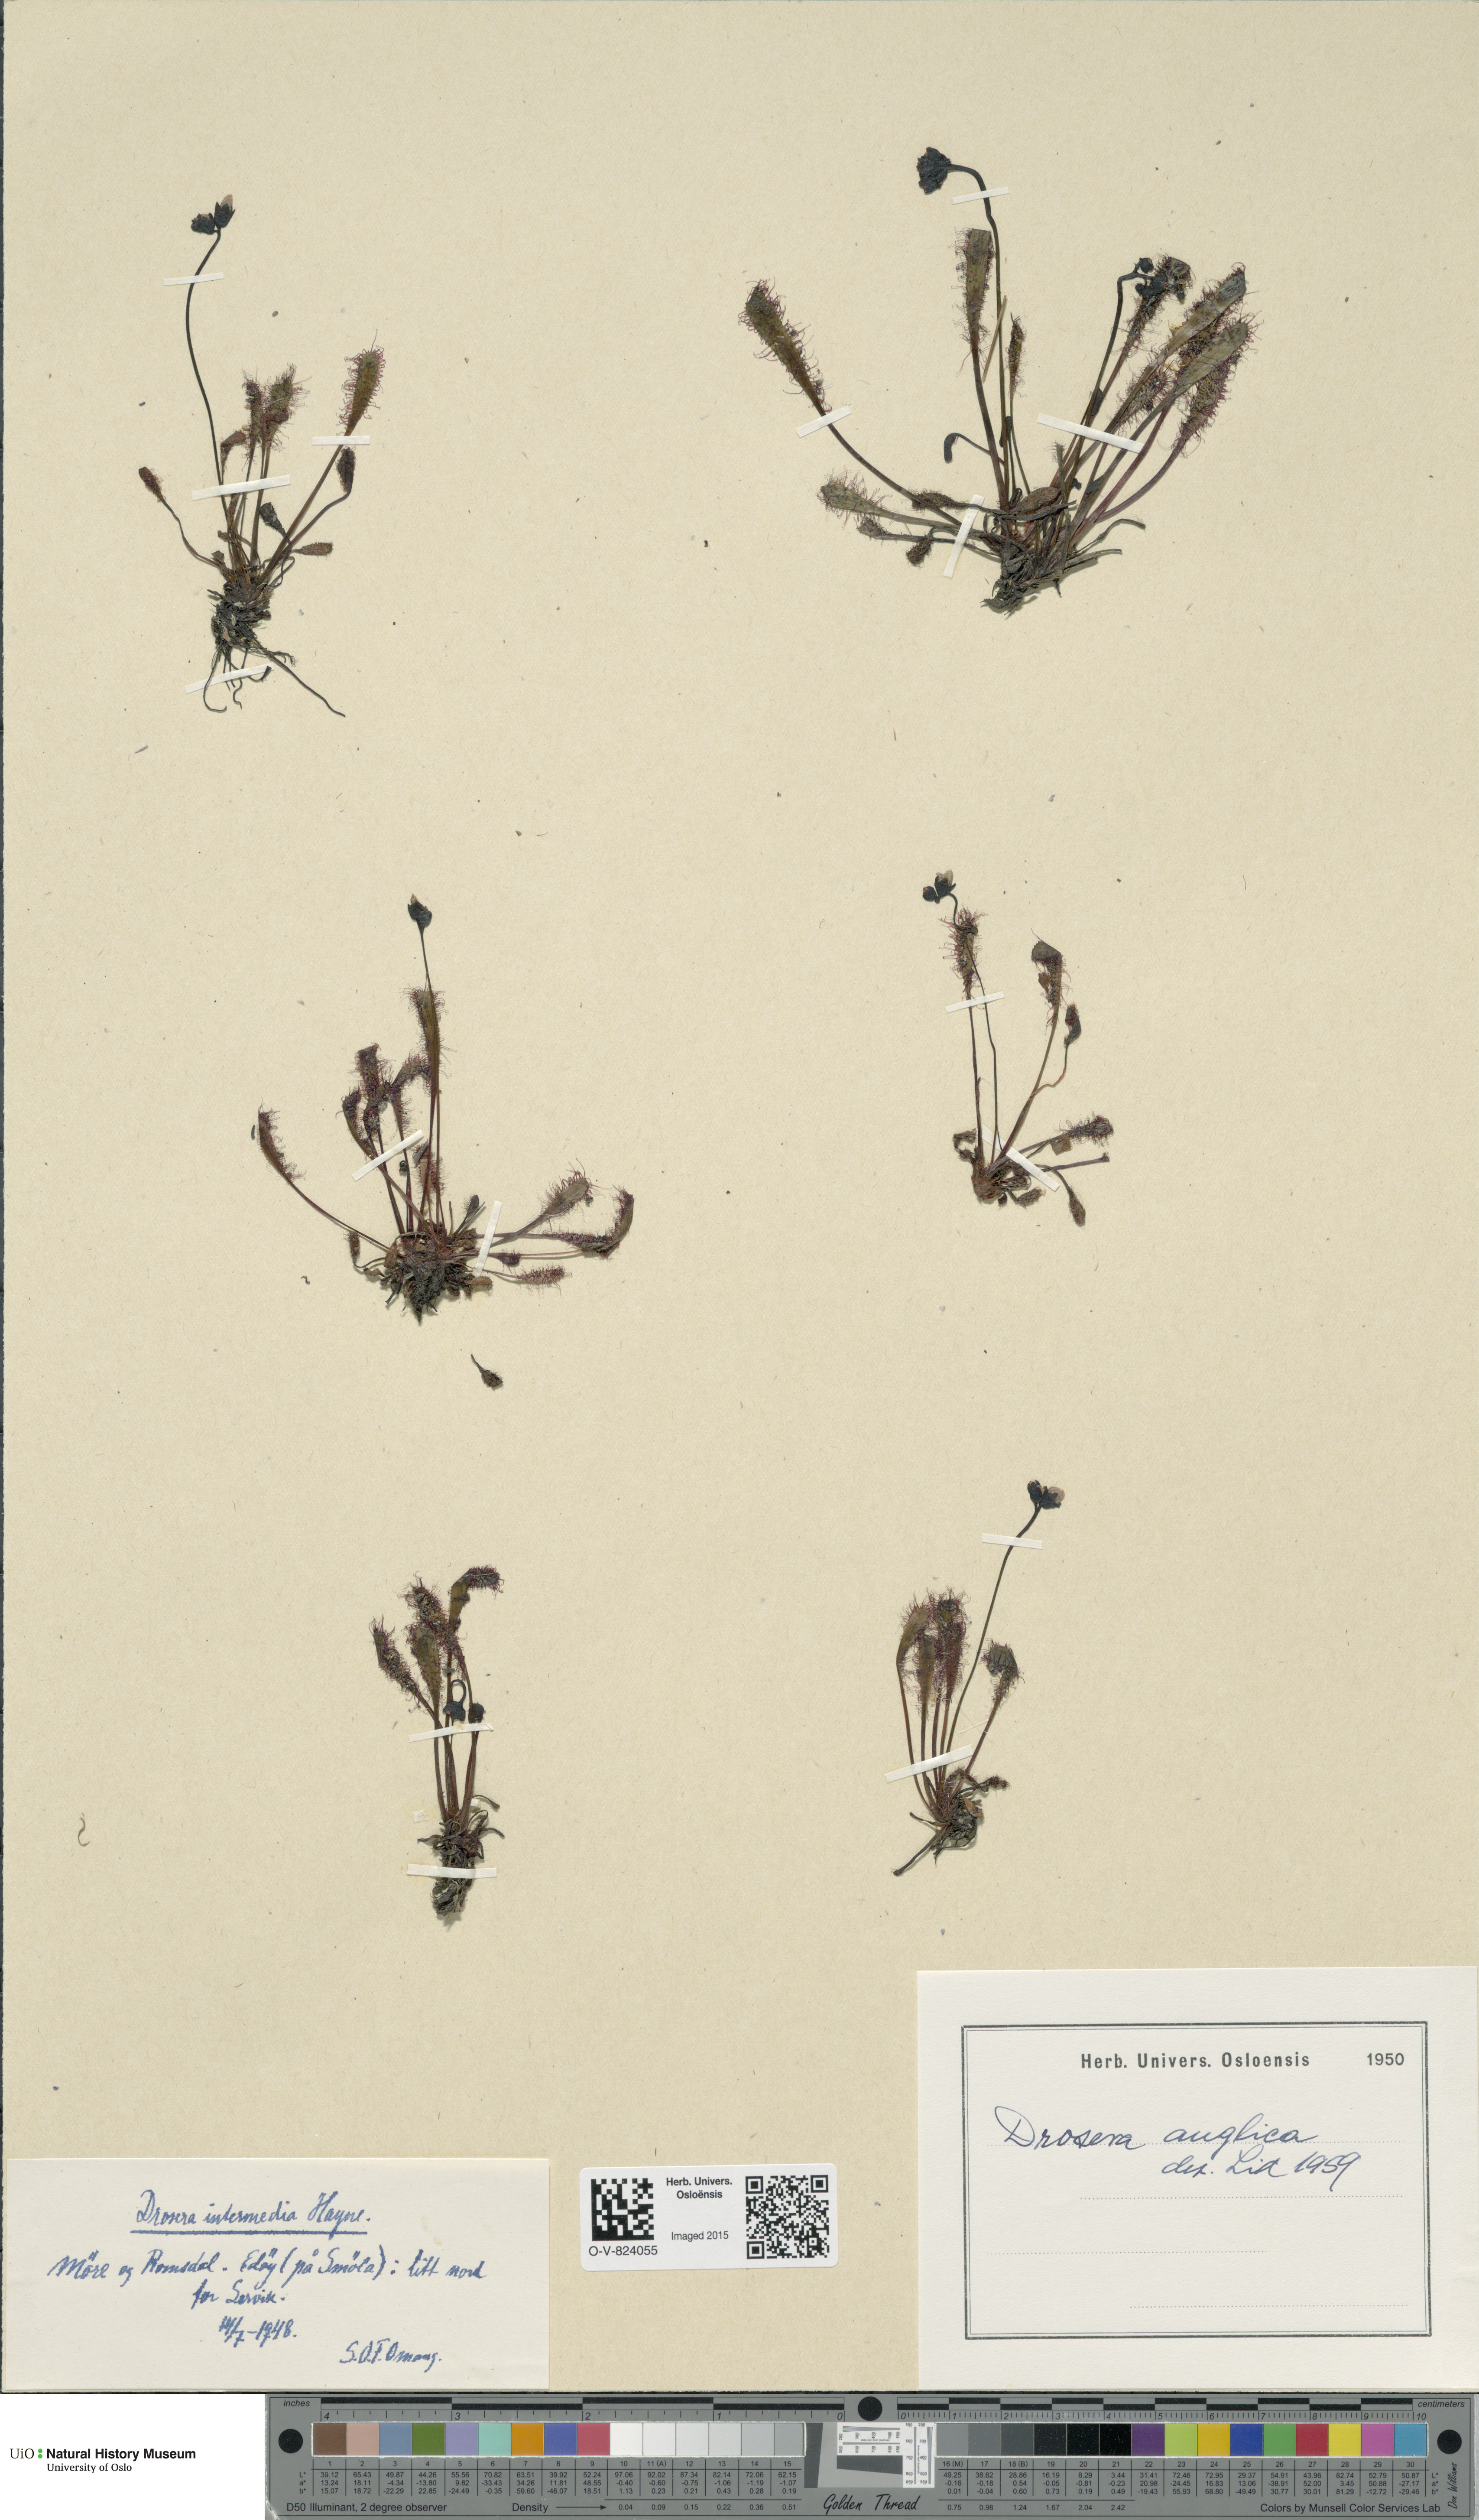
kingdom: Plantae
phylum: Tracheophyta
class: Magnoliopsida
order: Caryophyllales
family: Droseraceae
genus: Drosera
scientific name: Drosera anglica
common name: Great sundew
